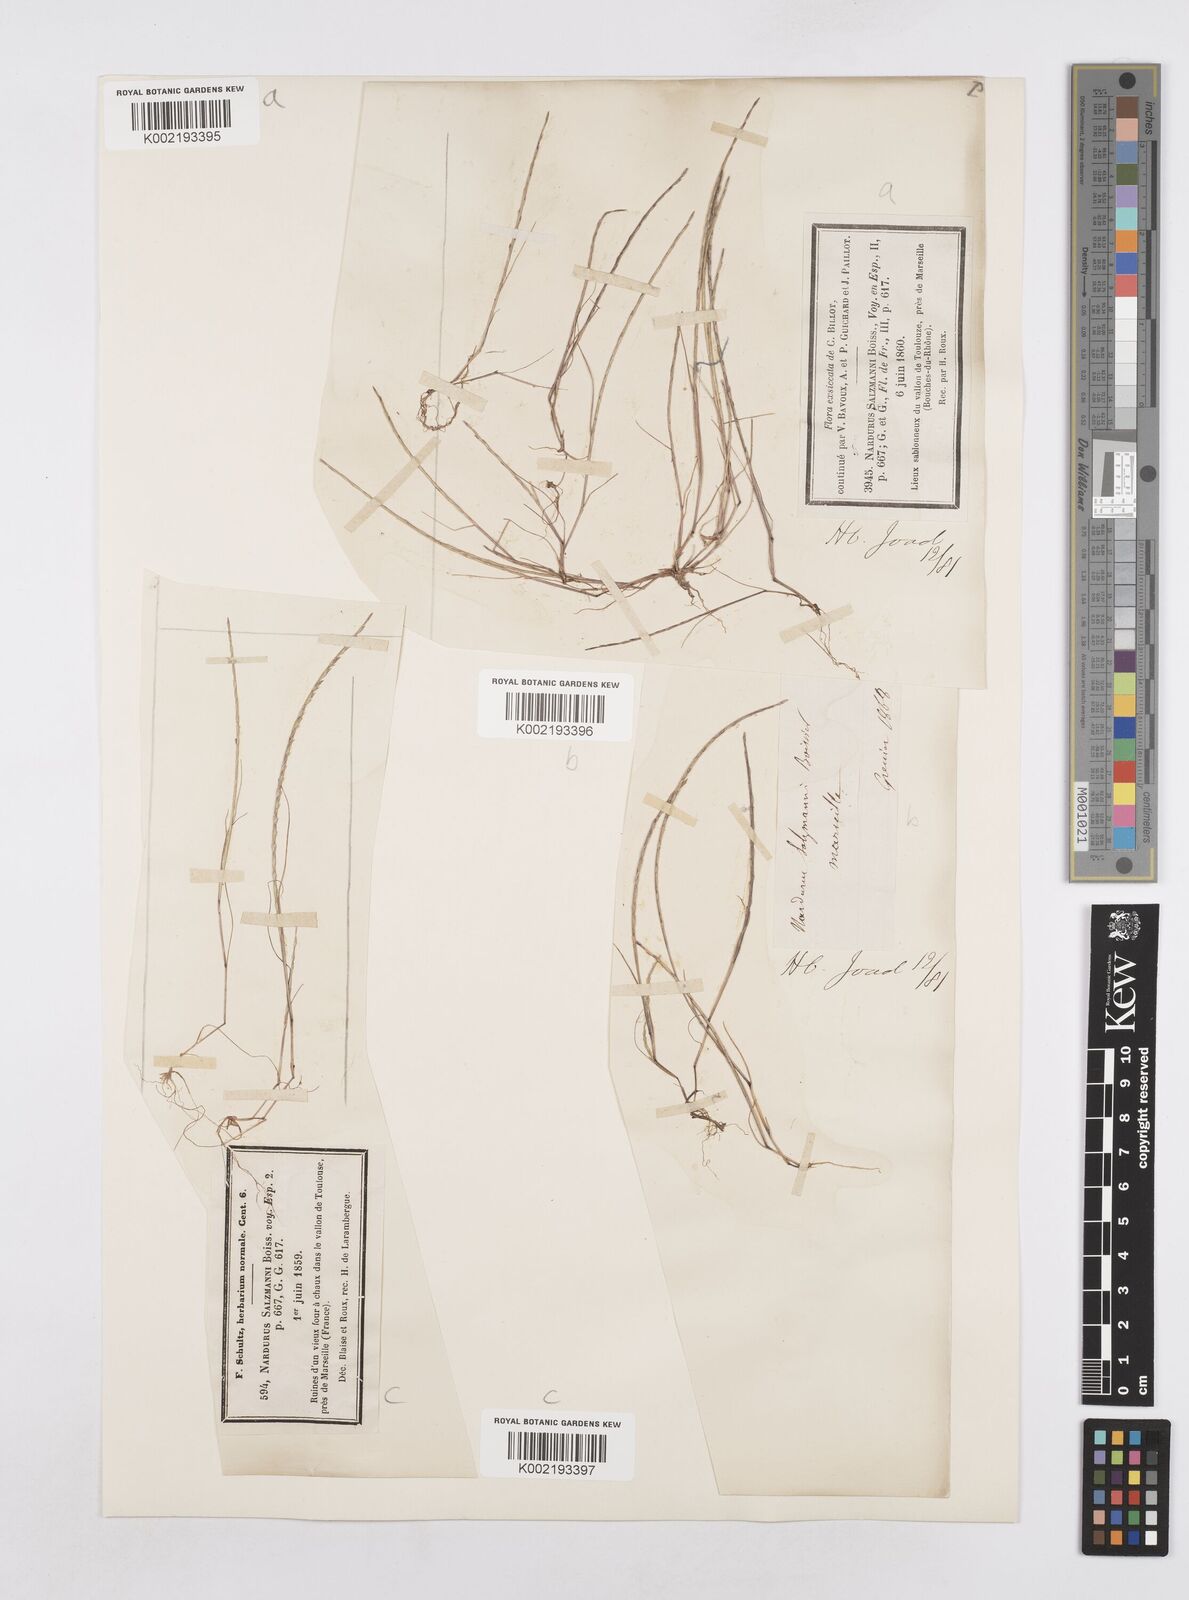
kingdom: Plantae
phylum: Tracheophyta
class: Liliopsida
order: Poales
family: Poaceae
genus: Festuca
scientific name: Festuca salzmannii
